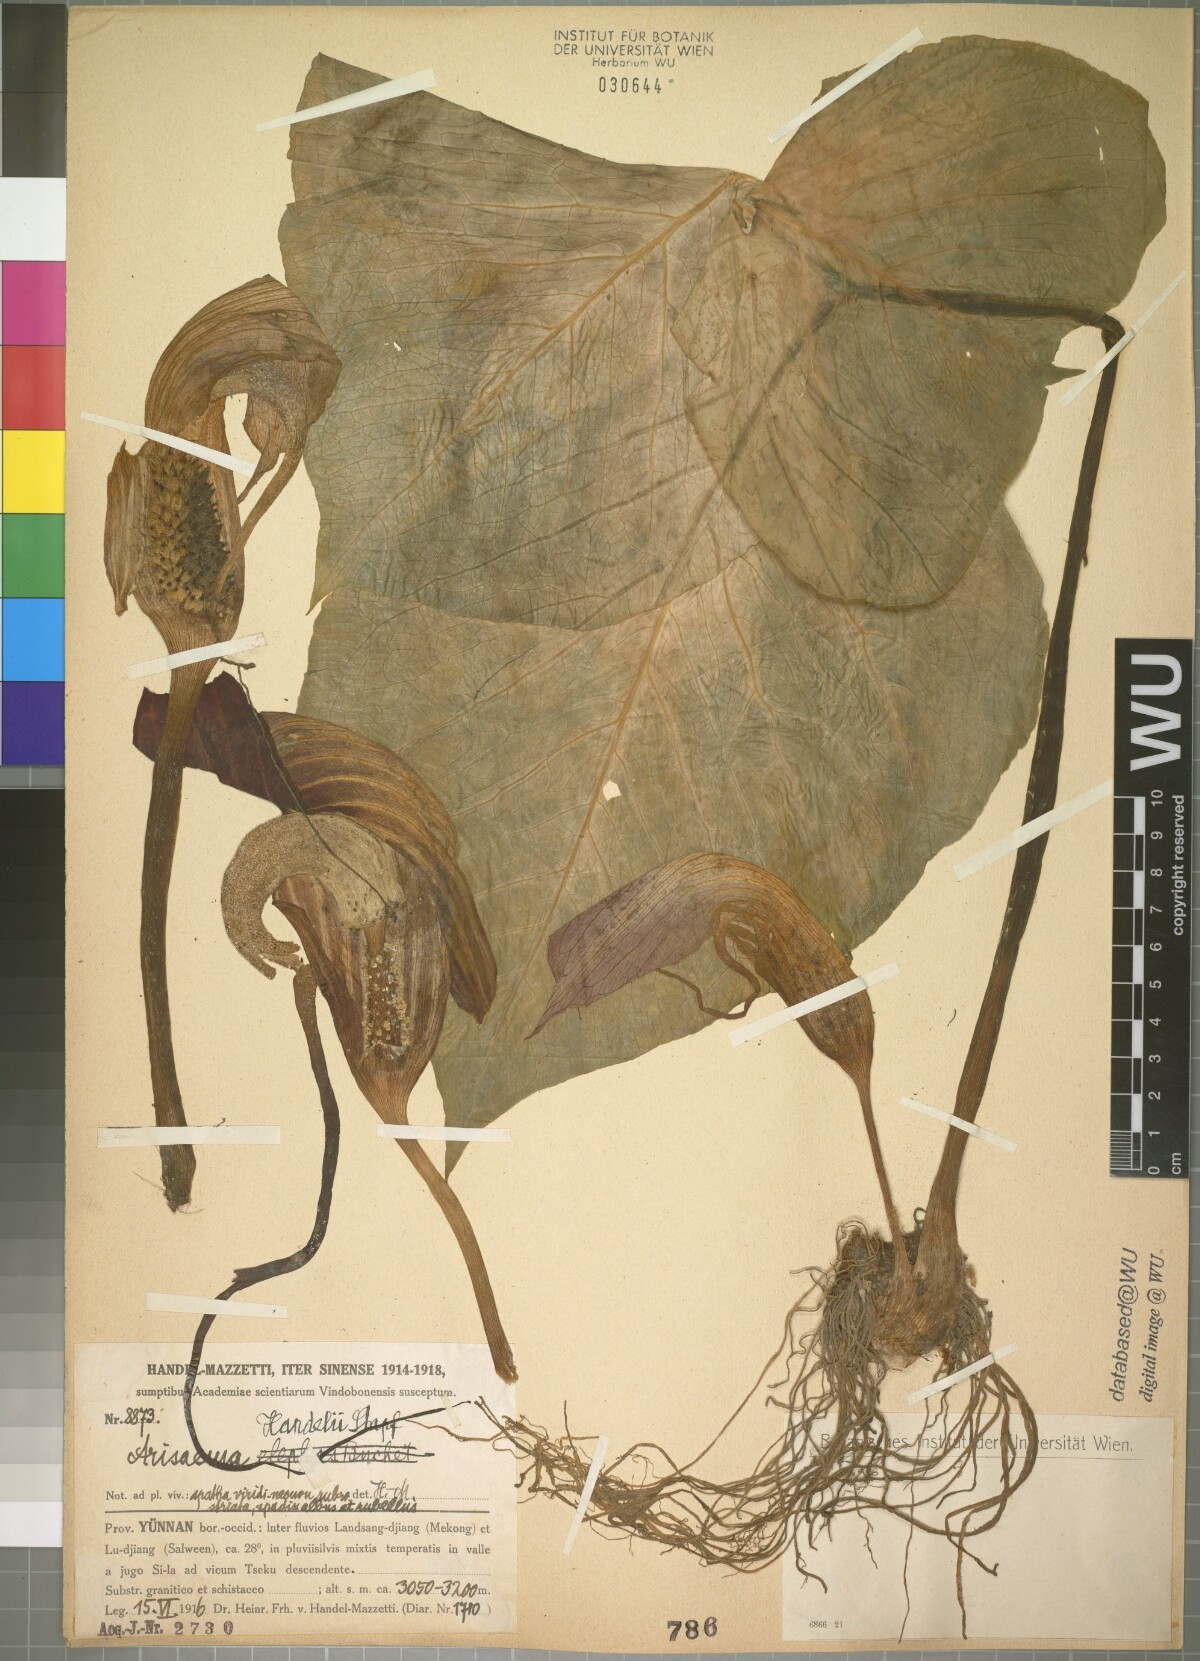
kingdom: Plantae
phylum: Tracheophyta
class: Liliopsida
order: Alismatales
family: Araceae
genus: Arisaema
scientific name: Arisaema handelii
